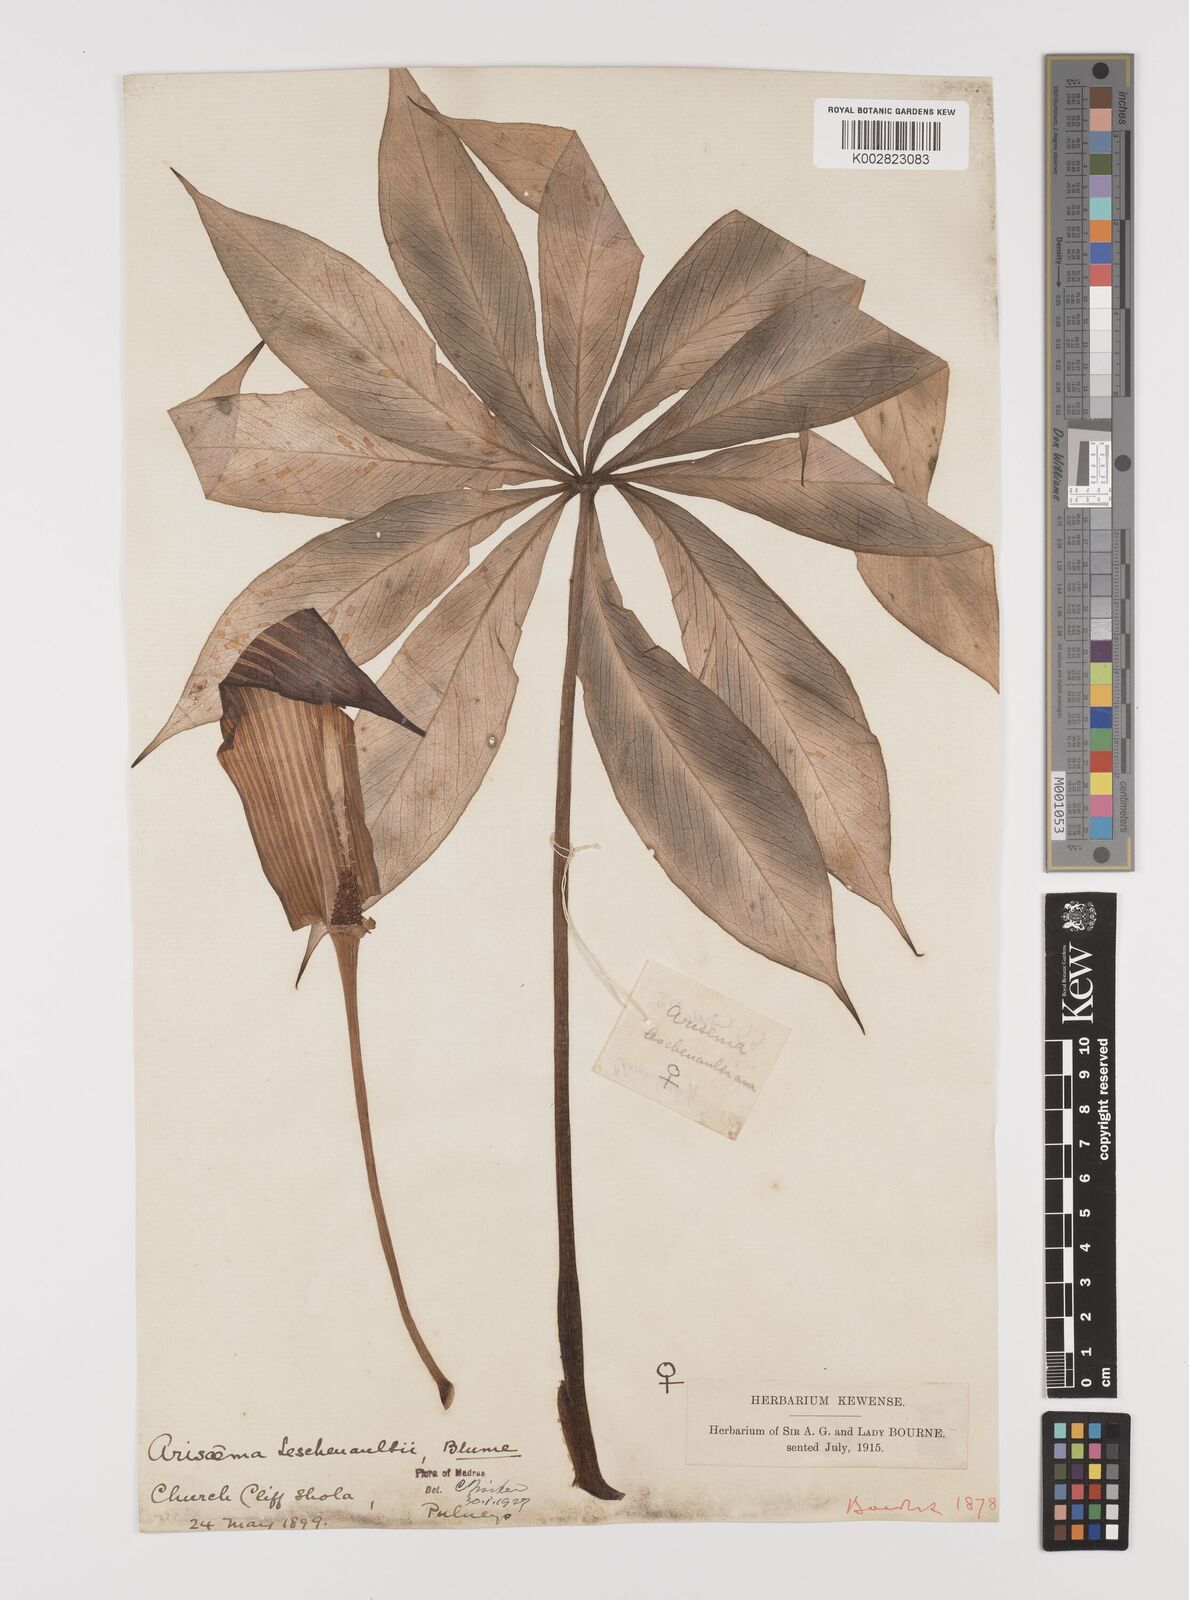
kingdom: Plantae
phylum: Tracheophyta
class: Liliopsida
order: Alismatales
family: Araceae
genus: Arisaema
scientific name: Arisaema leschenaultii
